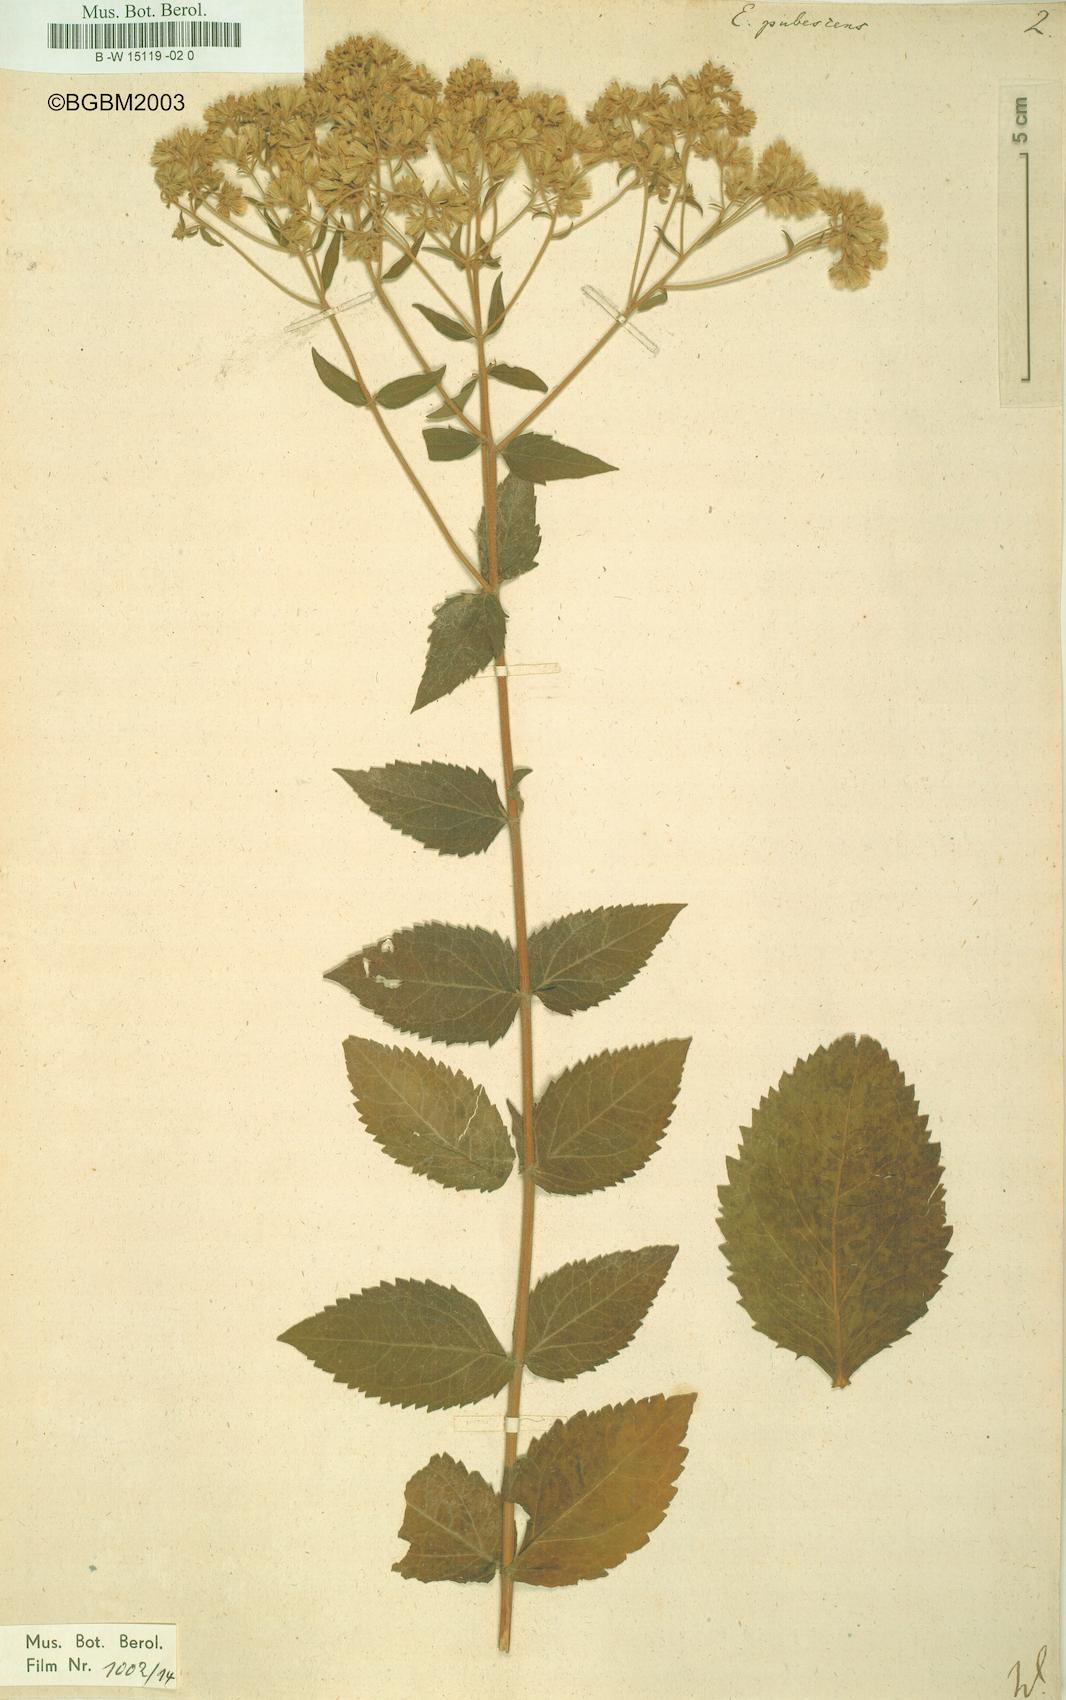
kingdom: Plantae
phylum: Tracheophyta
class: Magnoliopsida
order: Asterales
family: Asteraceae
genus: Eupatorium
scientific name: Eupatorium rotundifolium
